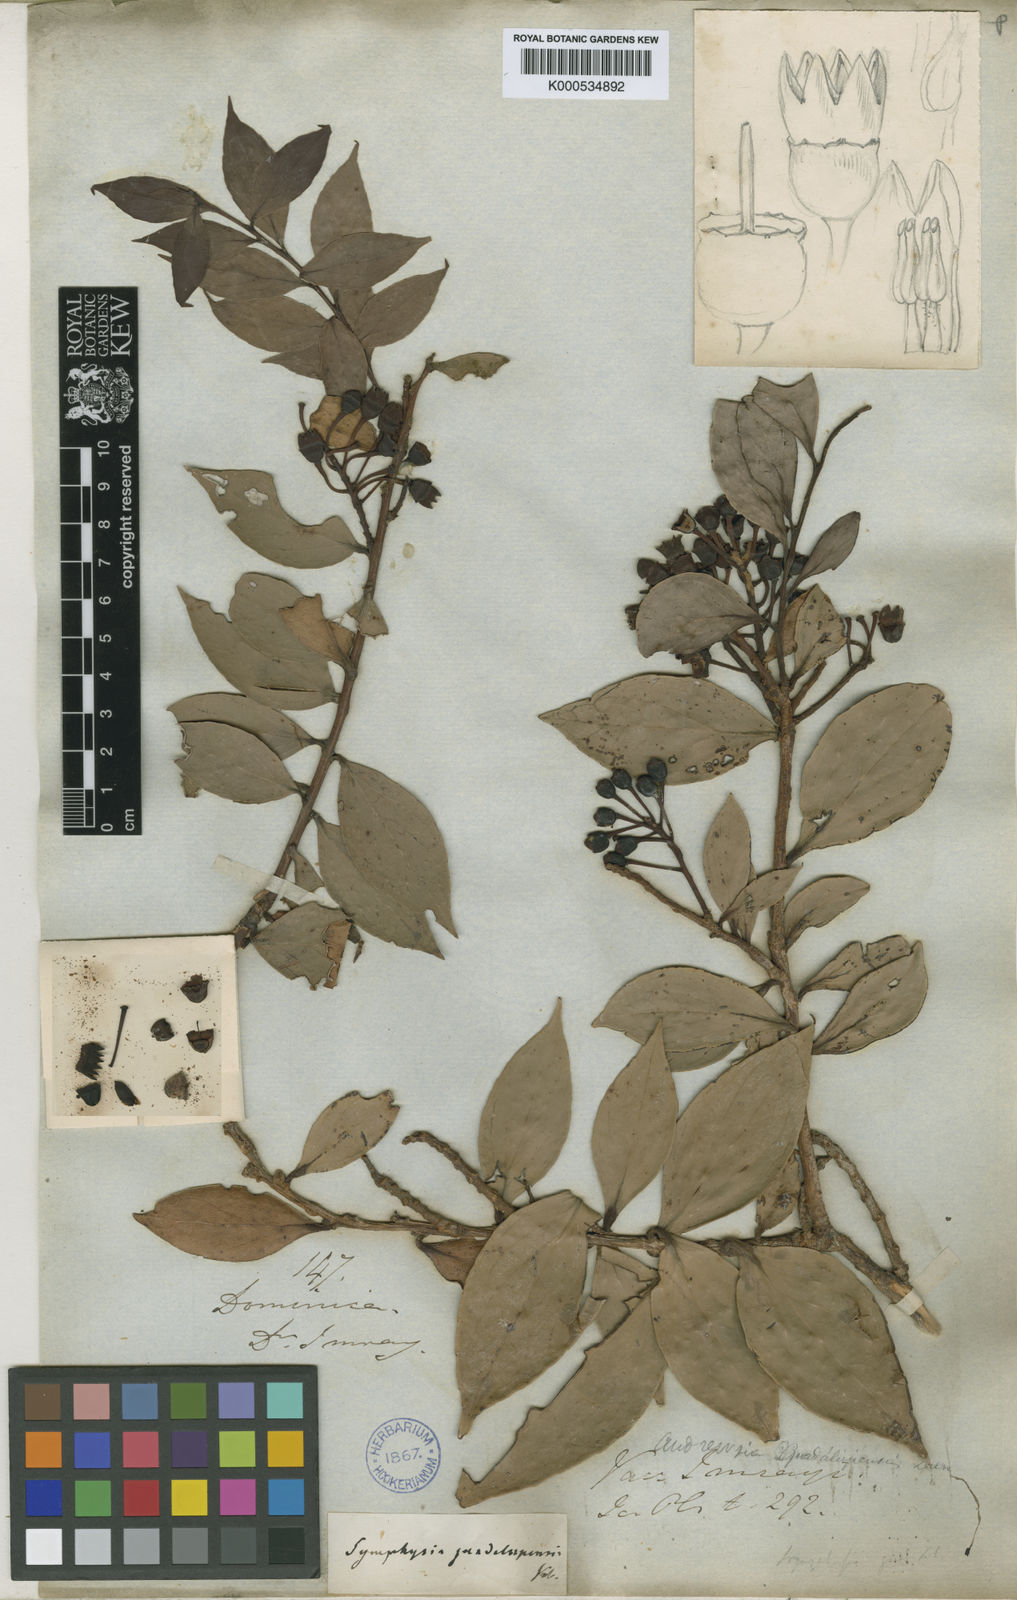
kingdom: Plantae
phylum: Tracheophyta
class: Magnoliopsida
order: Ericales
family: Ericaceae
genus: Symphysia
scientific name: Symphysia racemosa
